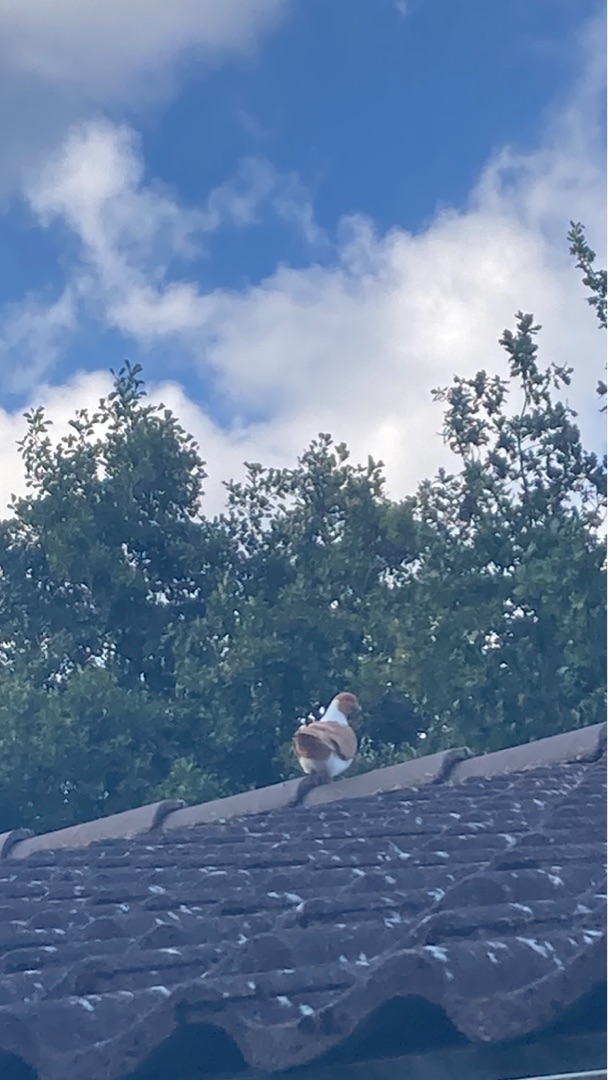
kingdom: Animalia
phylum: Chordata
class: Aves
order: Columbiformes
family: Columbidae
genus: Columba
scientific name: Columba livia
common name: Tamdue
